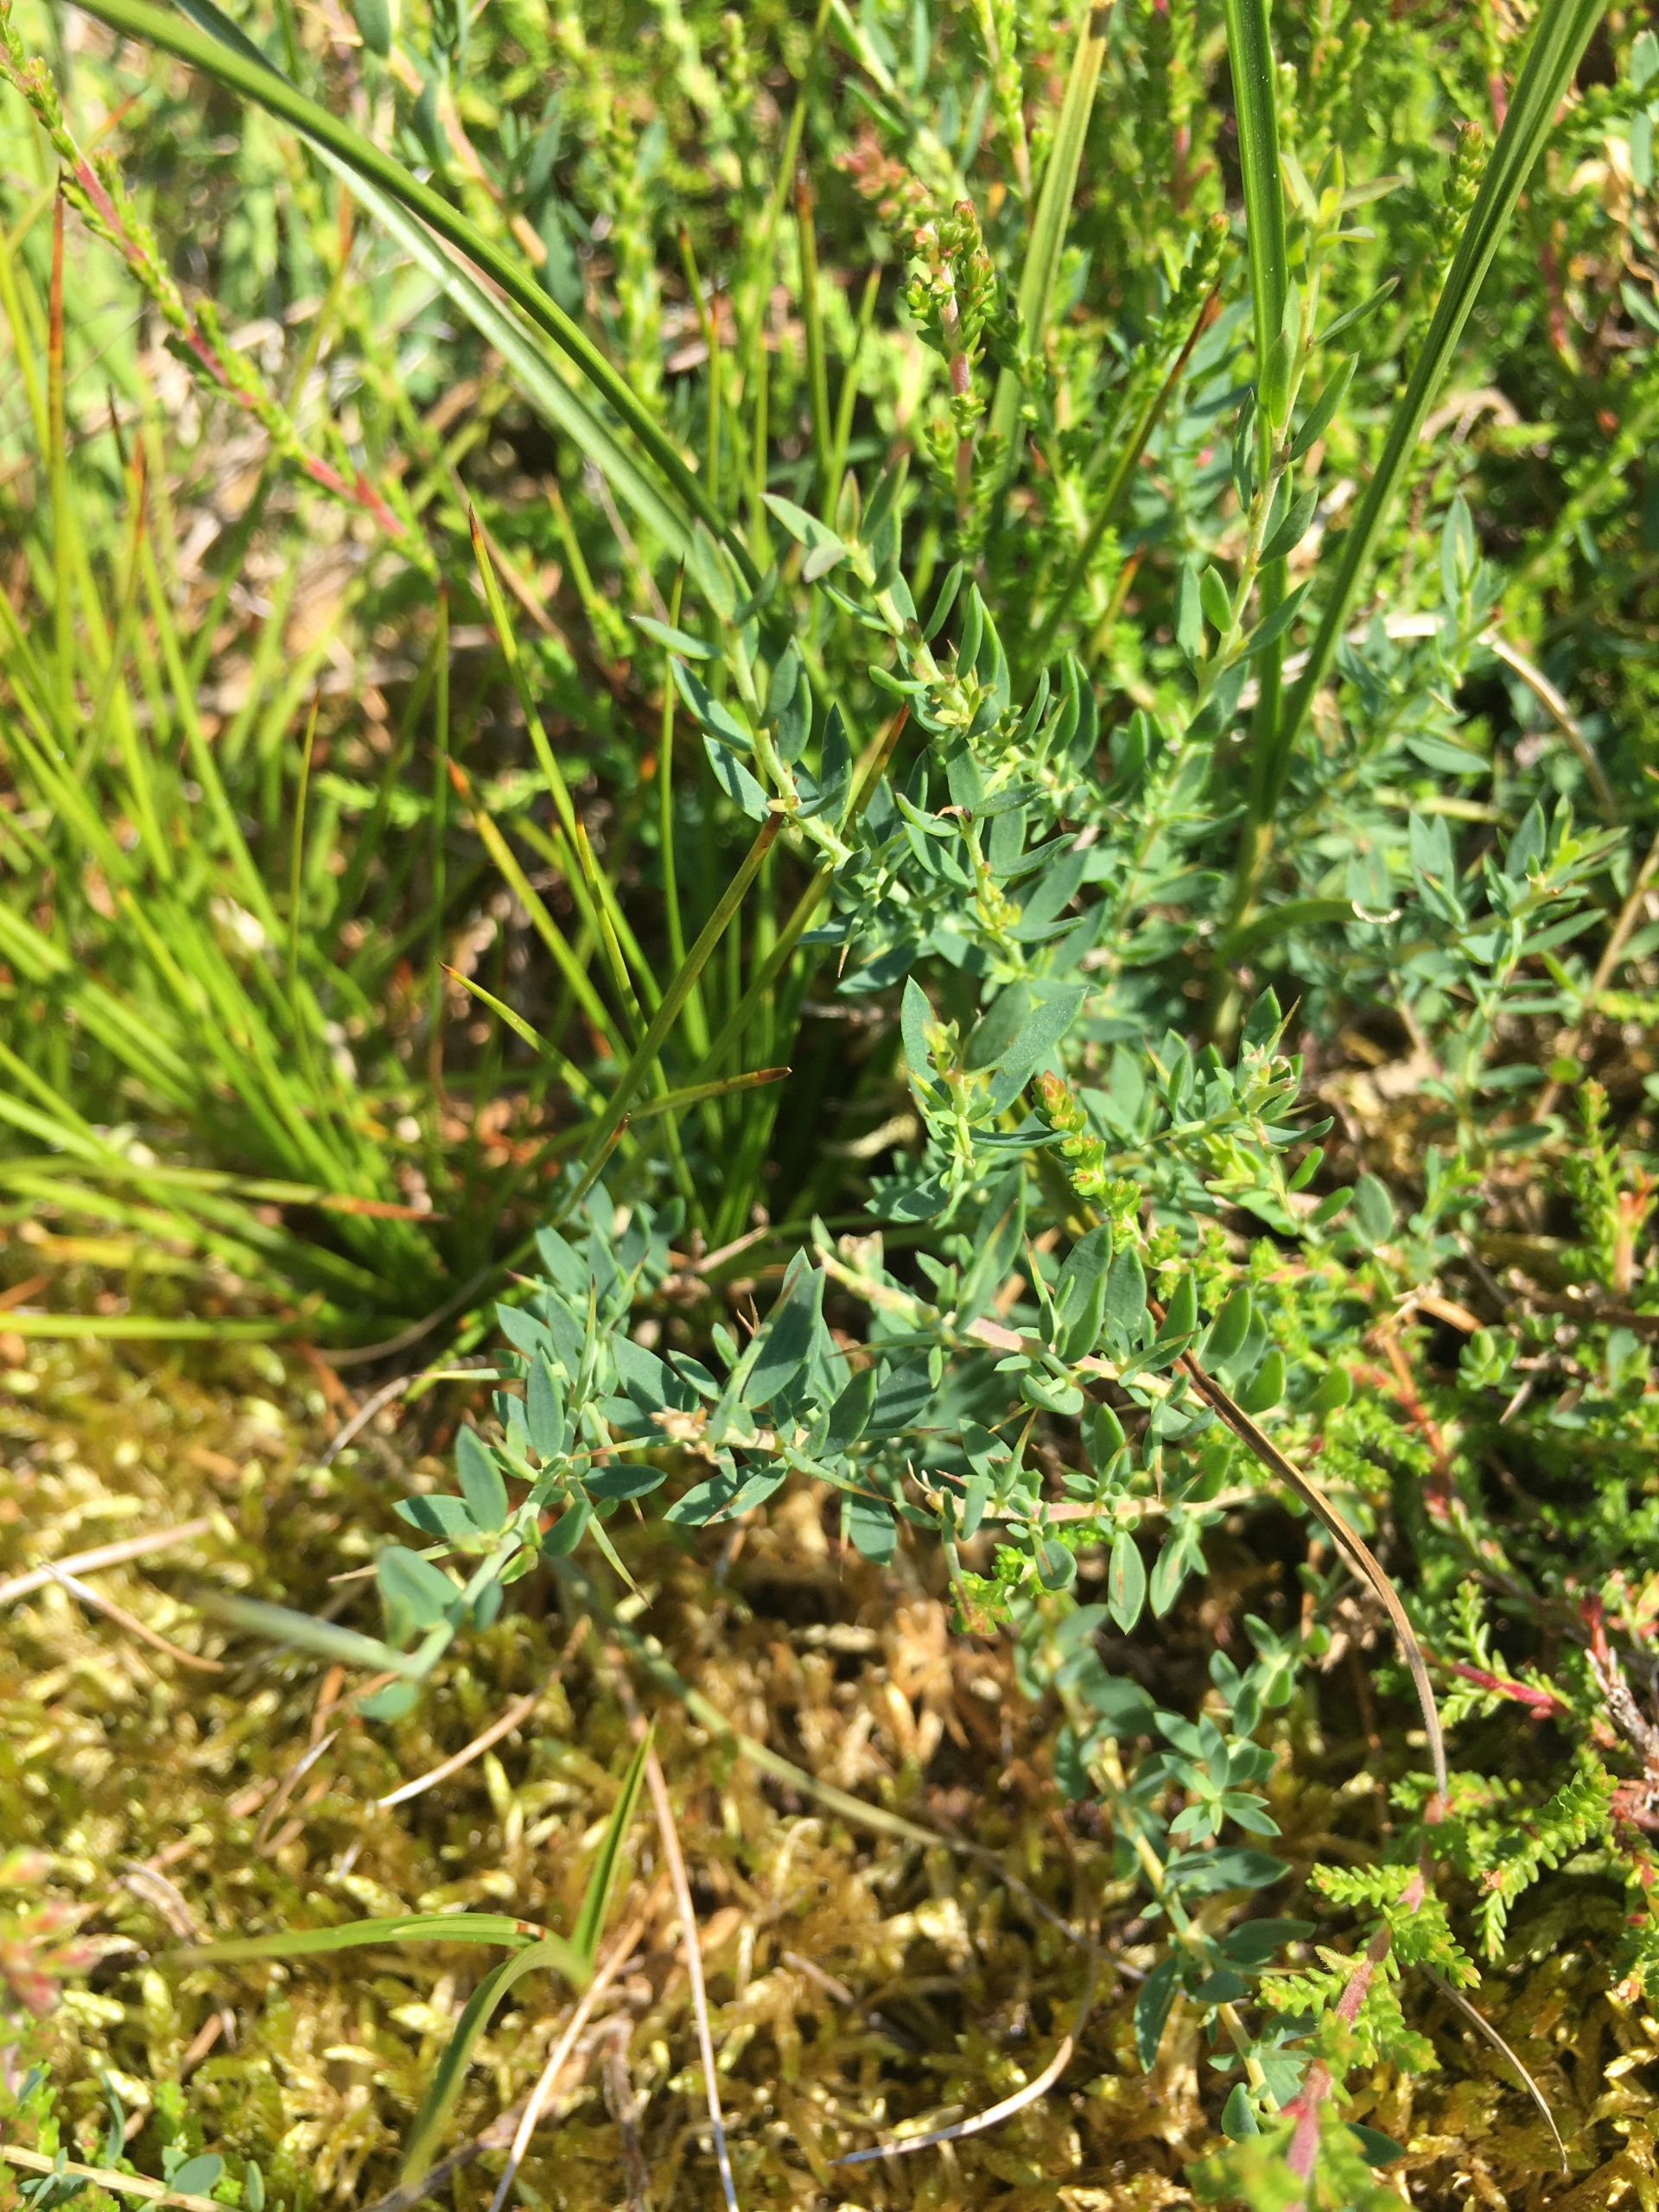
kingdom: Plantae
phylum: Tracheophyta
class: Magnoliopsida
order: Fabales
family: Fabaceae
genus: Genista
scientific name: Genista anglica
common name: Engelsk visse
